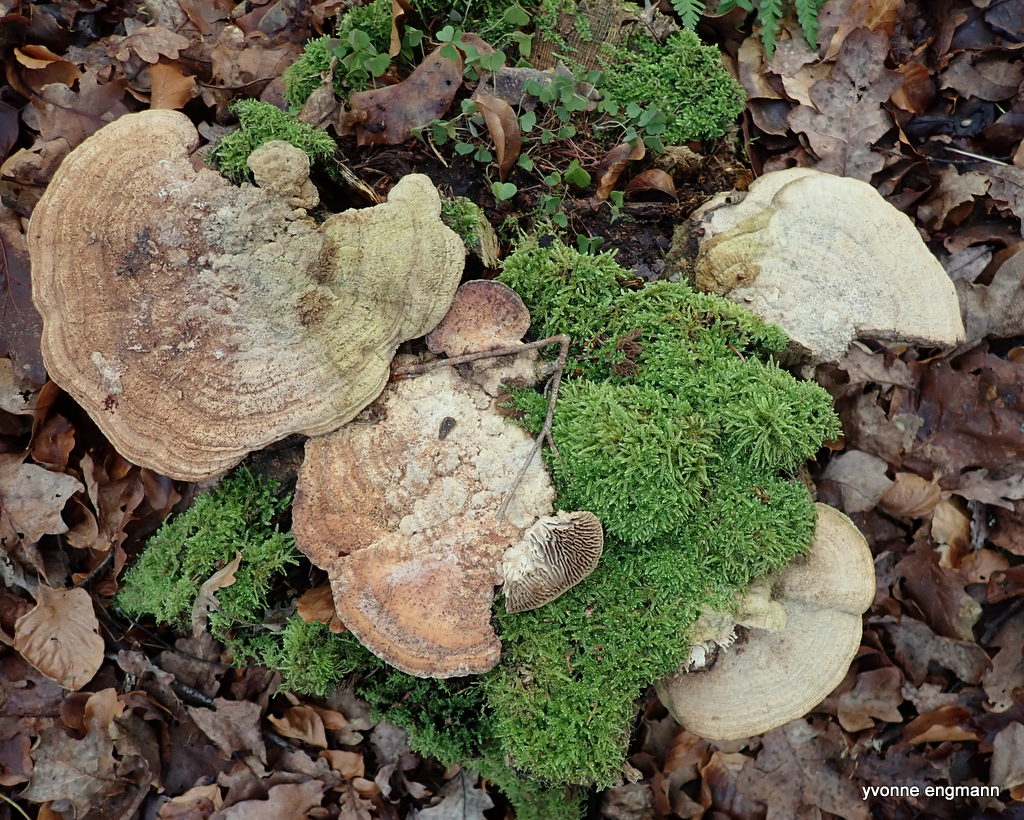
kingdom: Fungi
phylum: Basidiomycota
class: Agaricomycetes
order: Polyporales
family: Fomitopsidaceae
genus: Daedalea
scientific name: Daedalea quercina
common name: ege-labyrintsvamp
